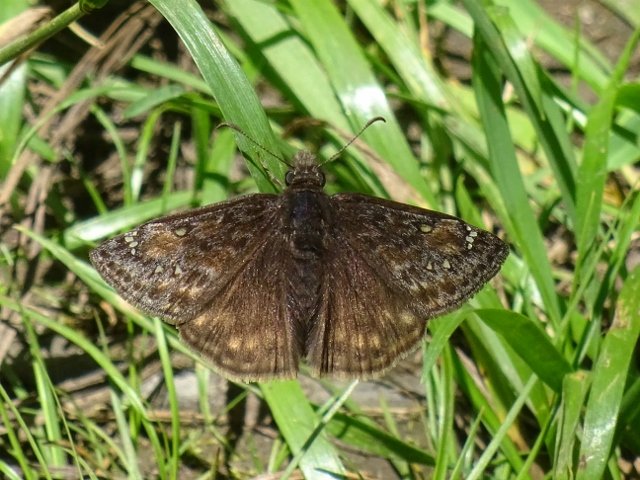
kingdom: Animalia
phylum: Arthropoda
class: Insecta
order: Lepidoptera
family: Hesperiidae
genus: Gesta
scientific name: Gesta
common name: Juvenal's Duskywing
